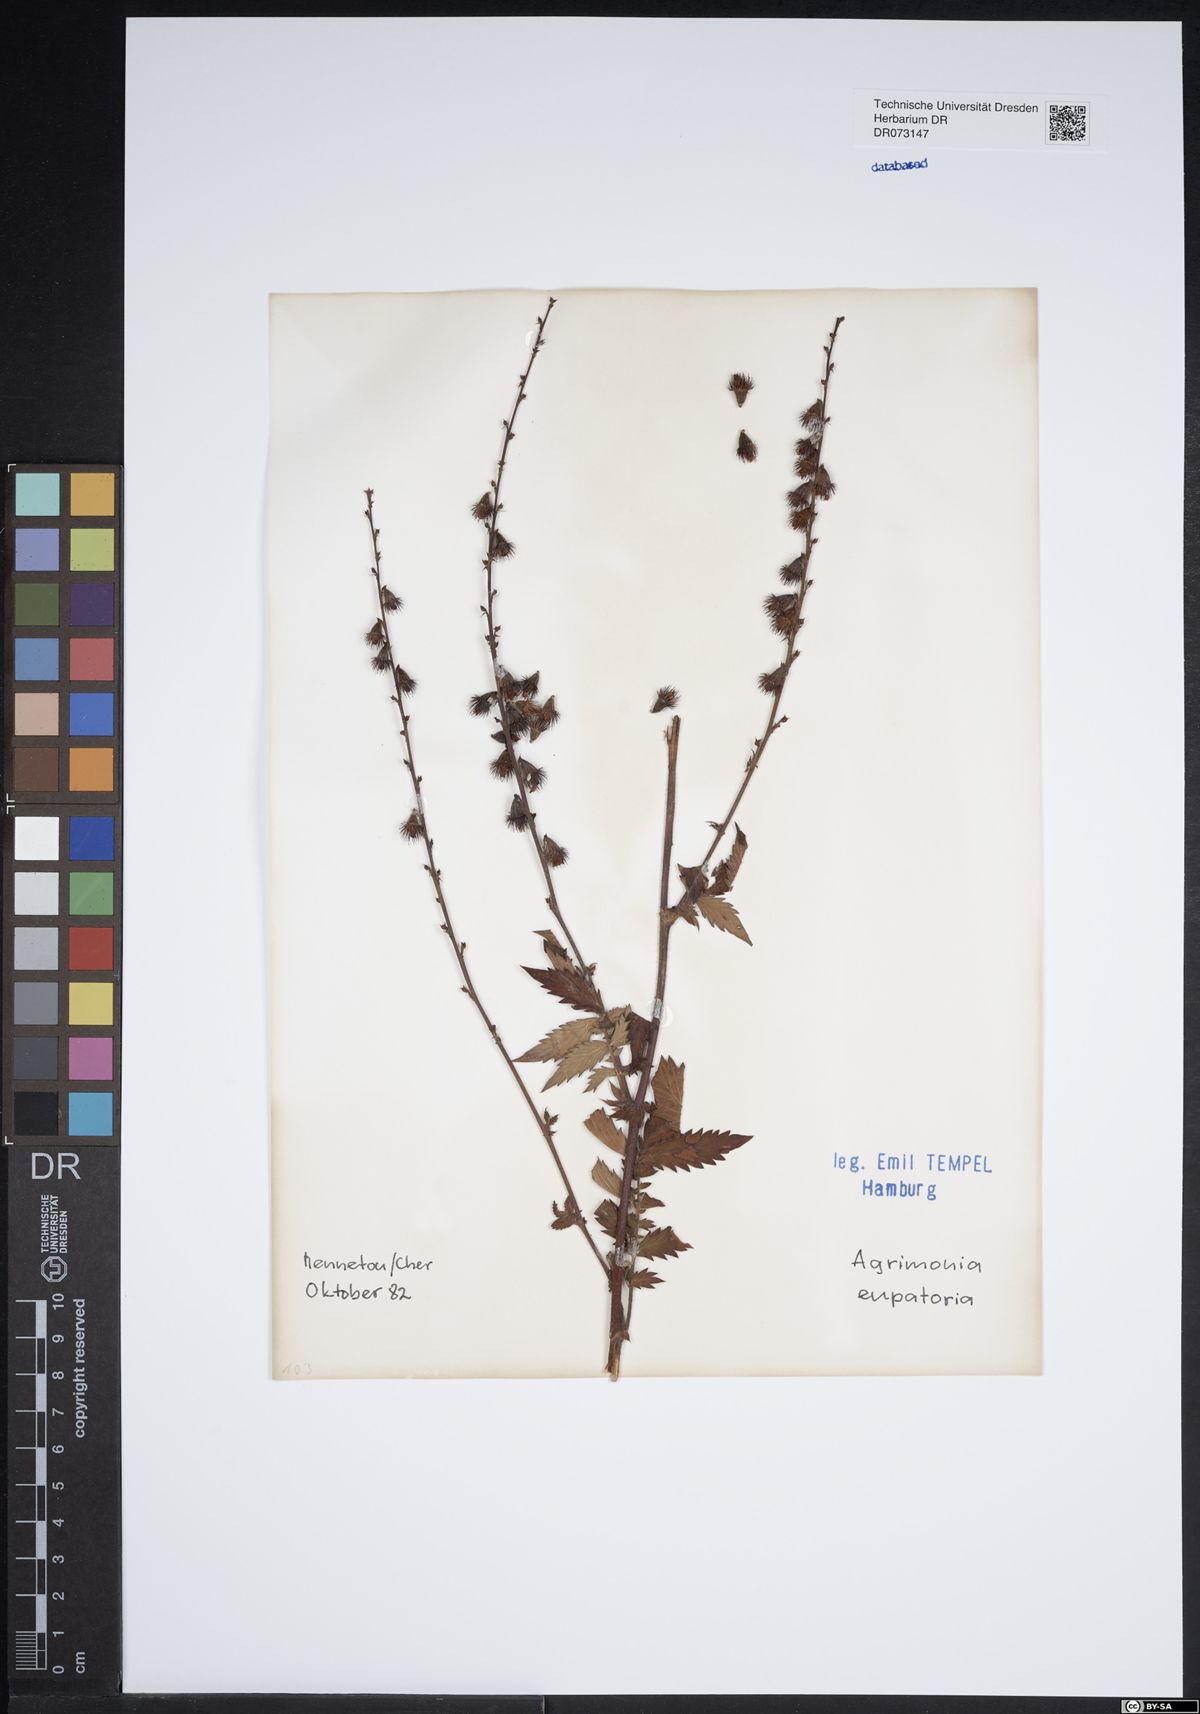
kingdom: Plantae
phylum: Tracheophyta
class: Magnoliopsida
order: Rosales
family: Rosaceae
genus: Agrimonia
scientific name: Agrimonia eupatoria
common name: Agrimony
